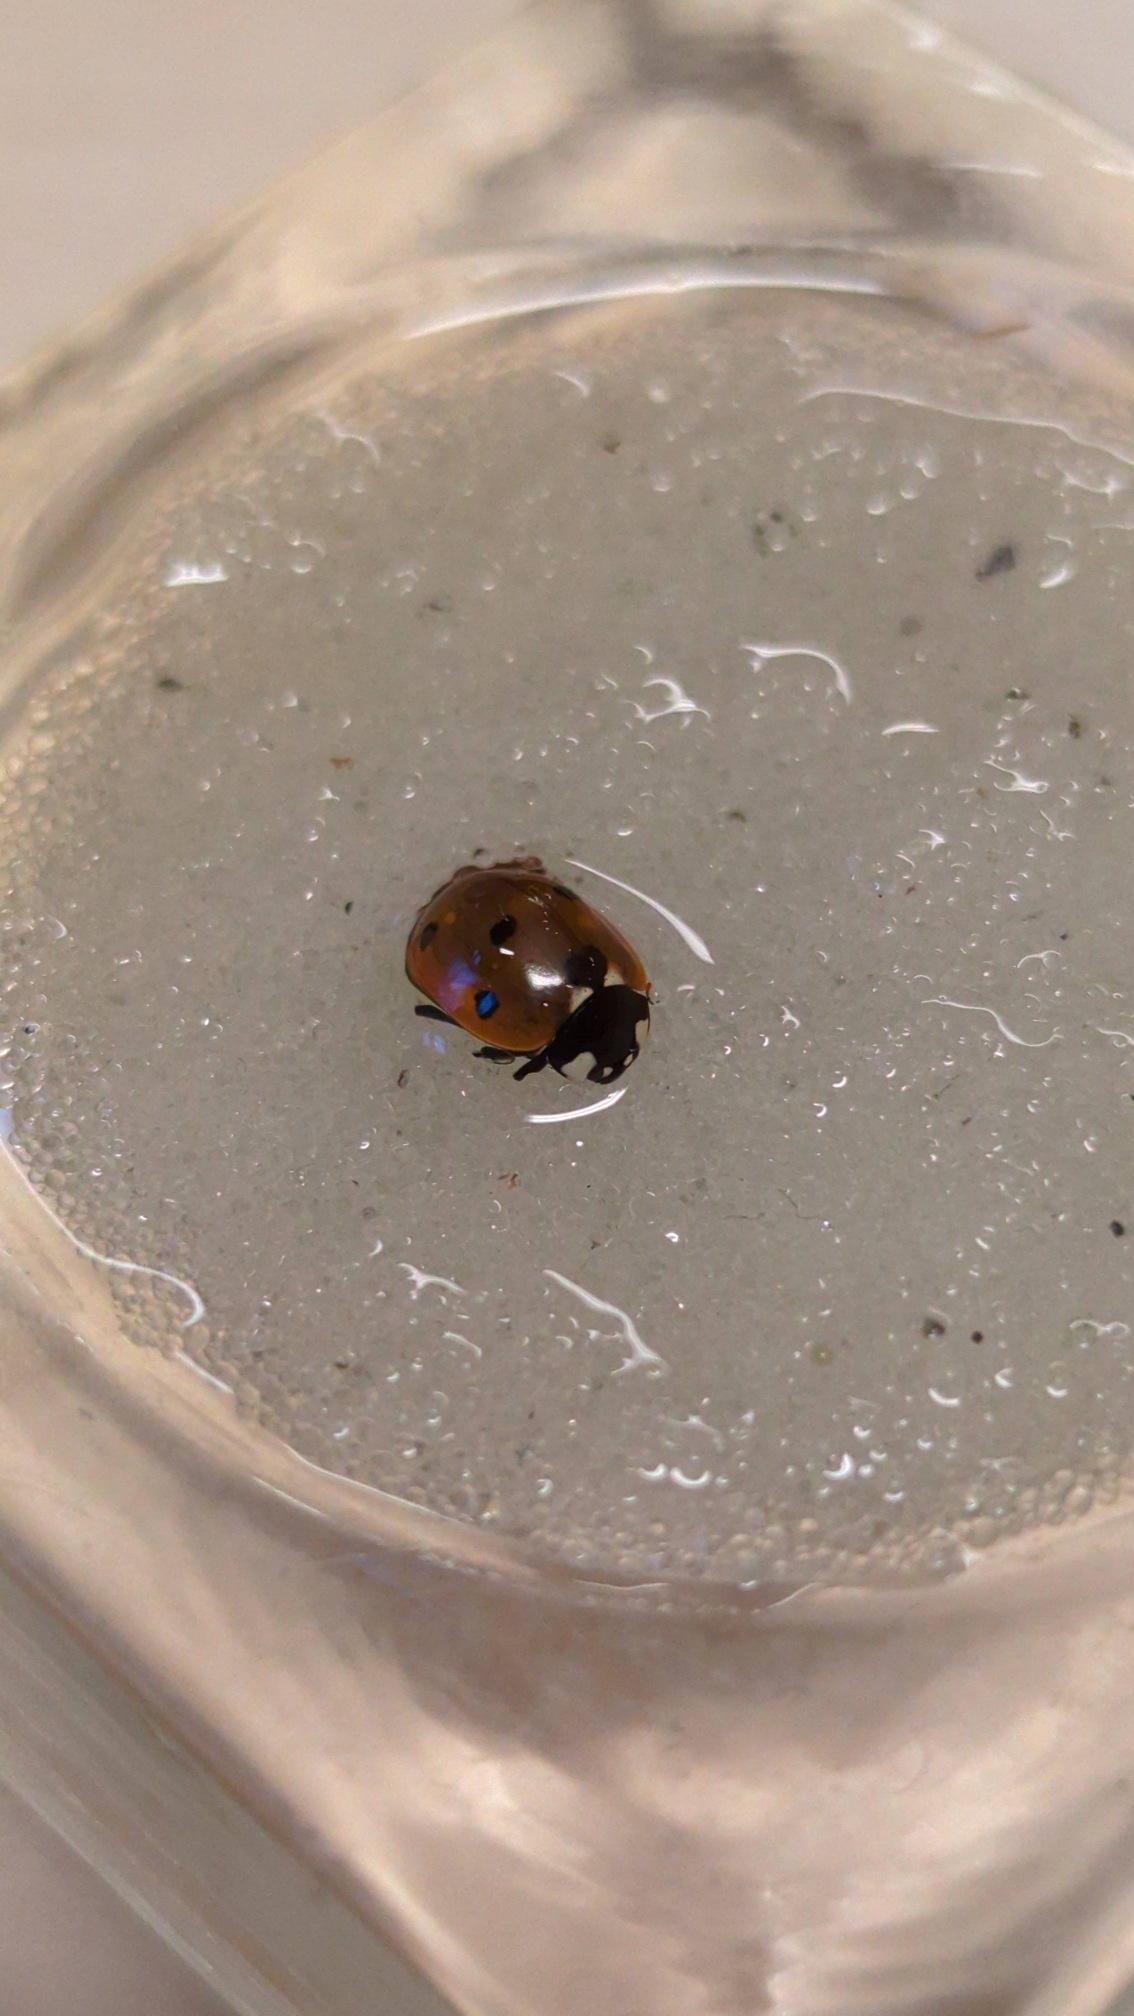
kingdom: Animalia
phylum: Arthropoda
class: Insecta
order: Coleoptera
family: Coccinellidae
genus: Coccinella
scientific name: Coccinella septempunctata
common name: Syvplettet mariehøne
